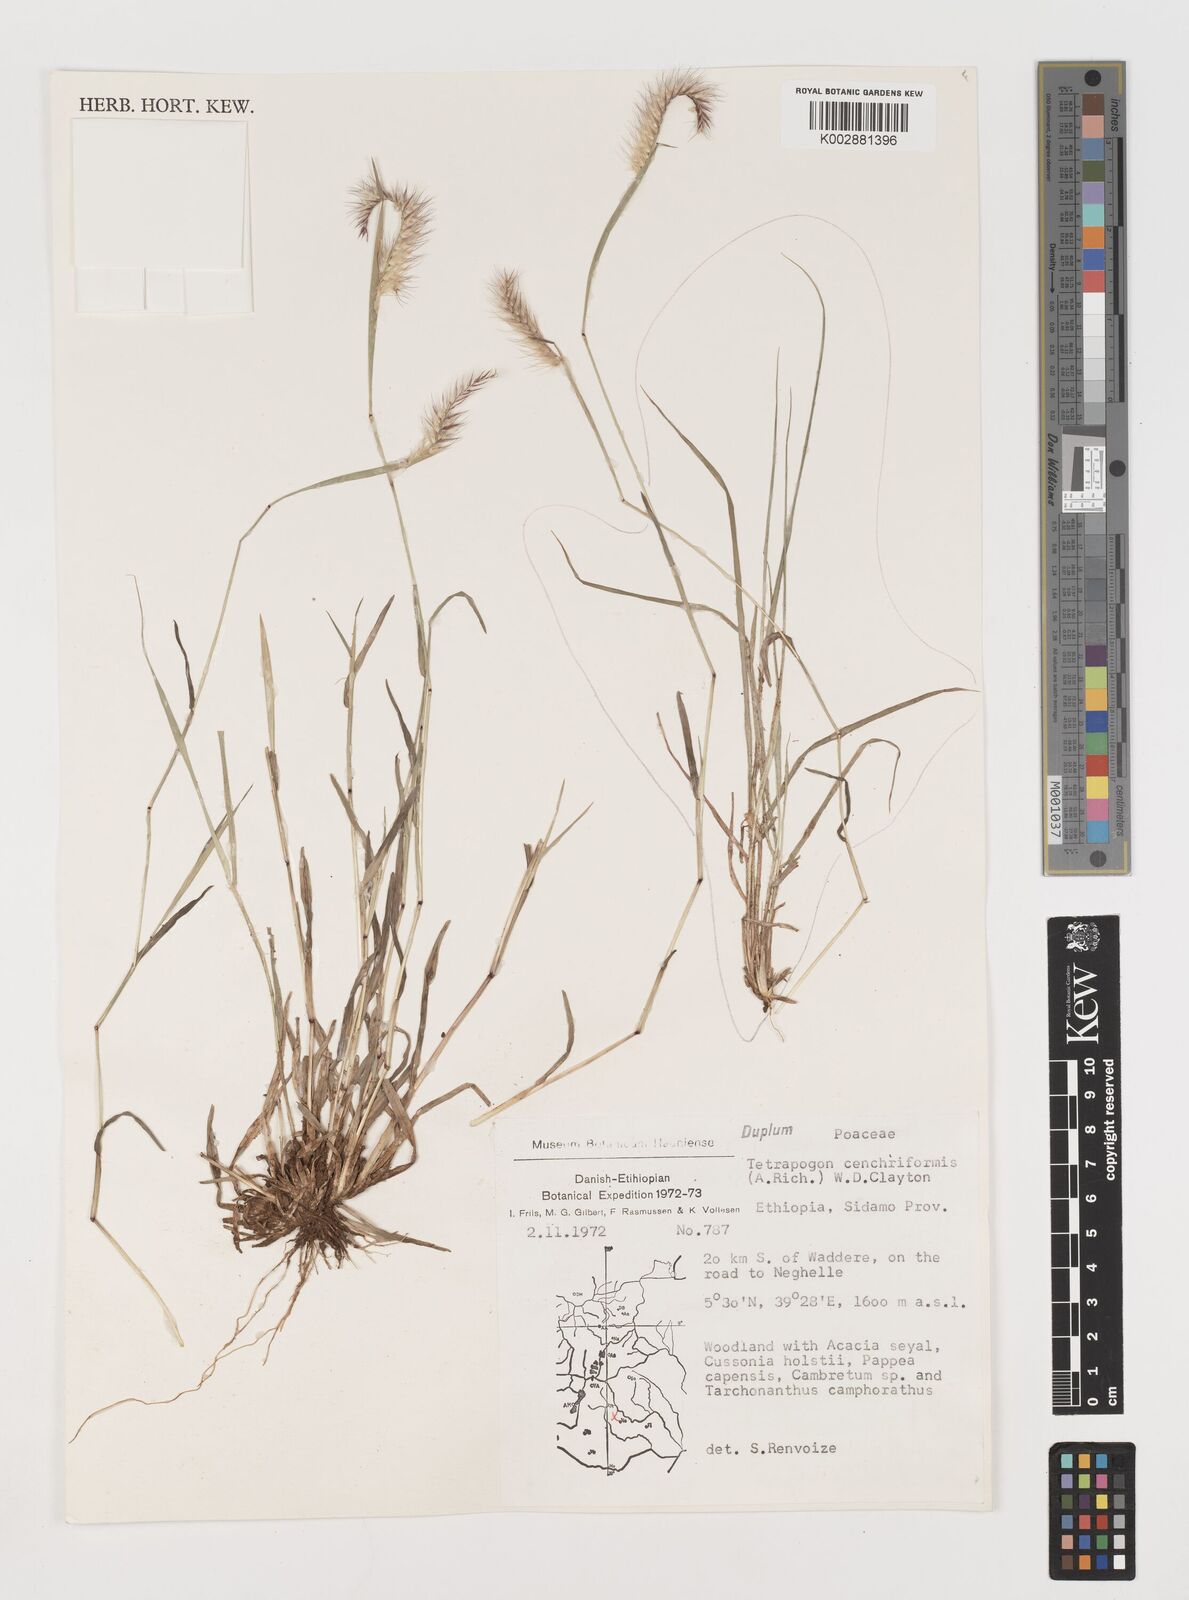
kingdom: Plantae
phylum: Tracheophyta
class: Liliopsida
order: Poales
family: Poaceae
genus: Tetrapogon
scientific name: Tetrapogon cenchriformis
